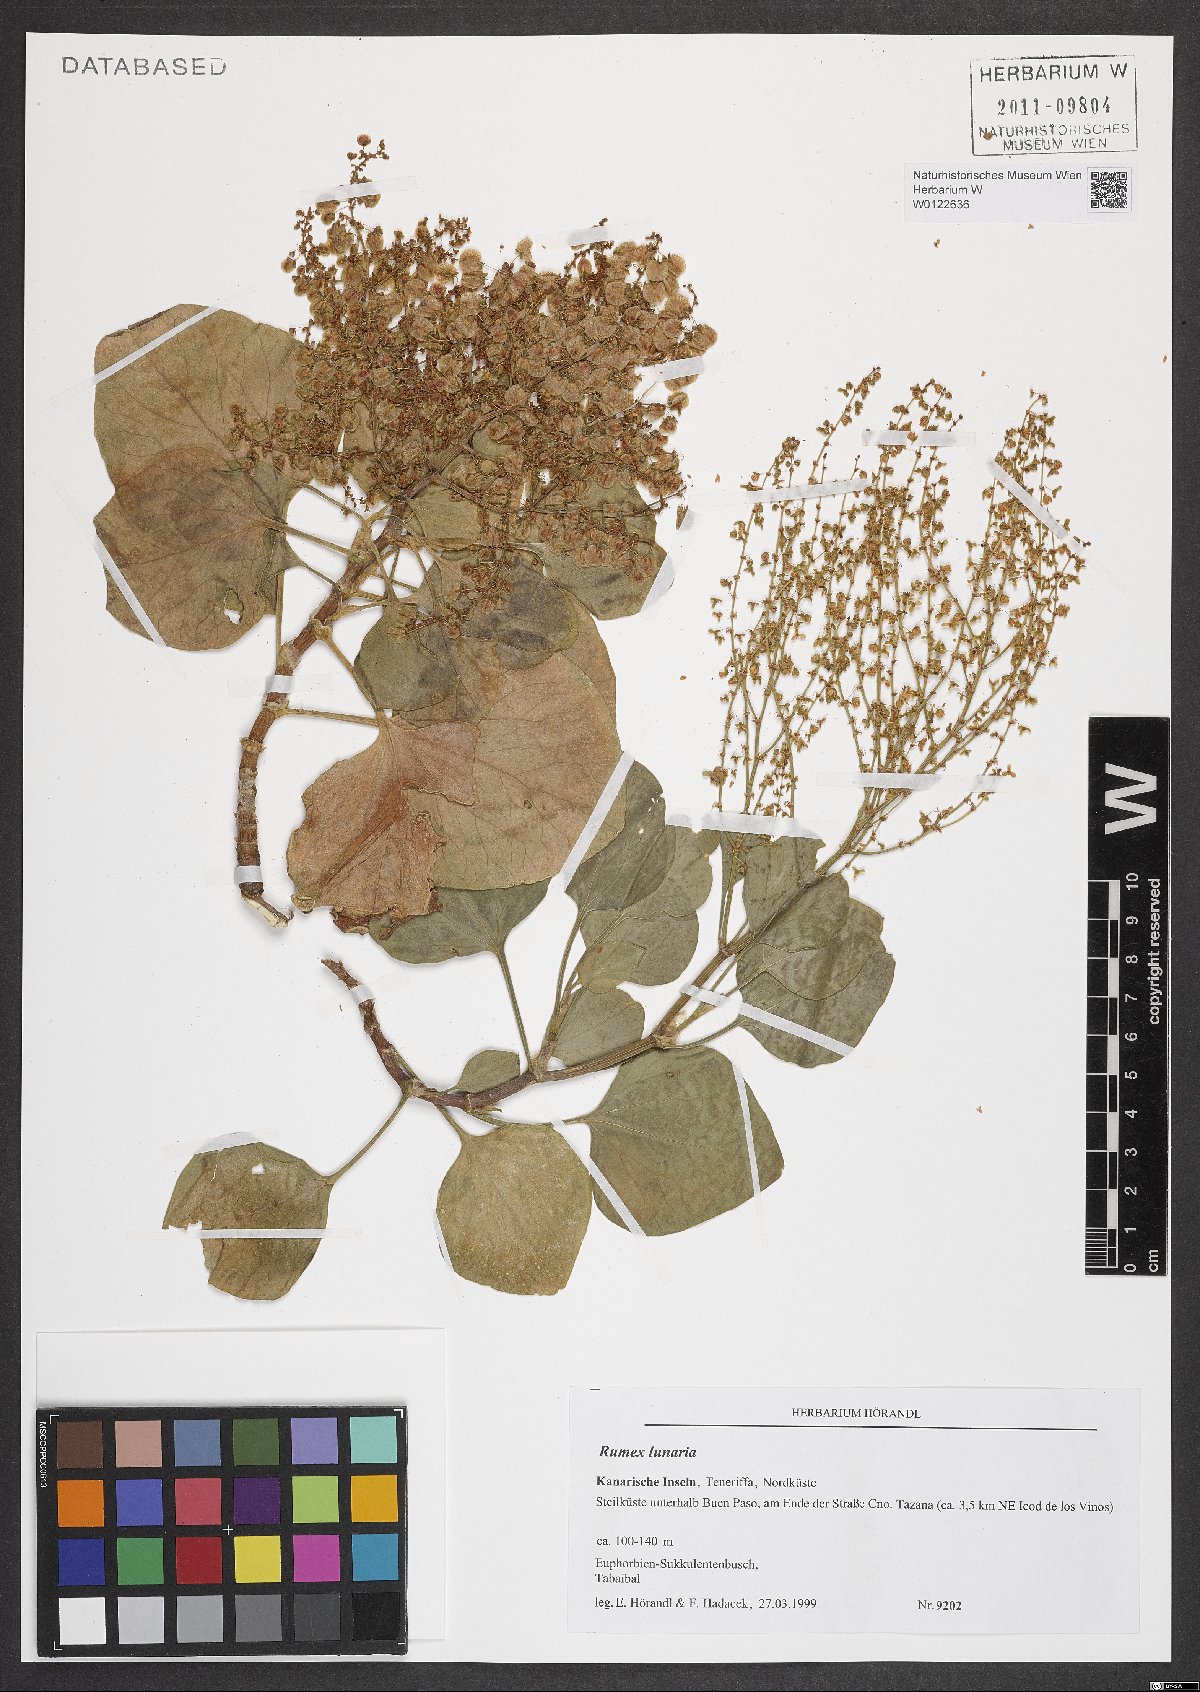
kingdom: Plantae
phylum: Tracheophyta
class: Magnoliopsida
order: Caryophyllales
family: Polygonaceae
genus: Rumex
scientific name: Rumex lunaria
